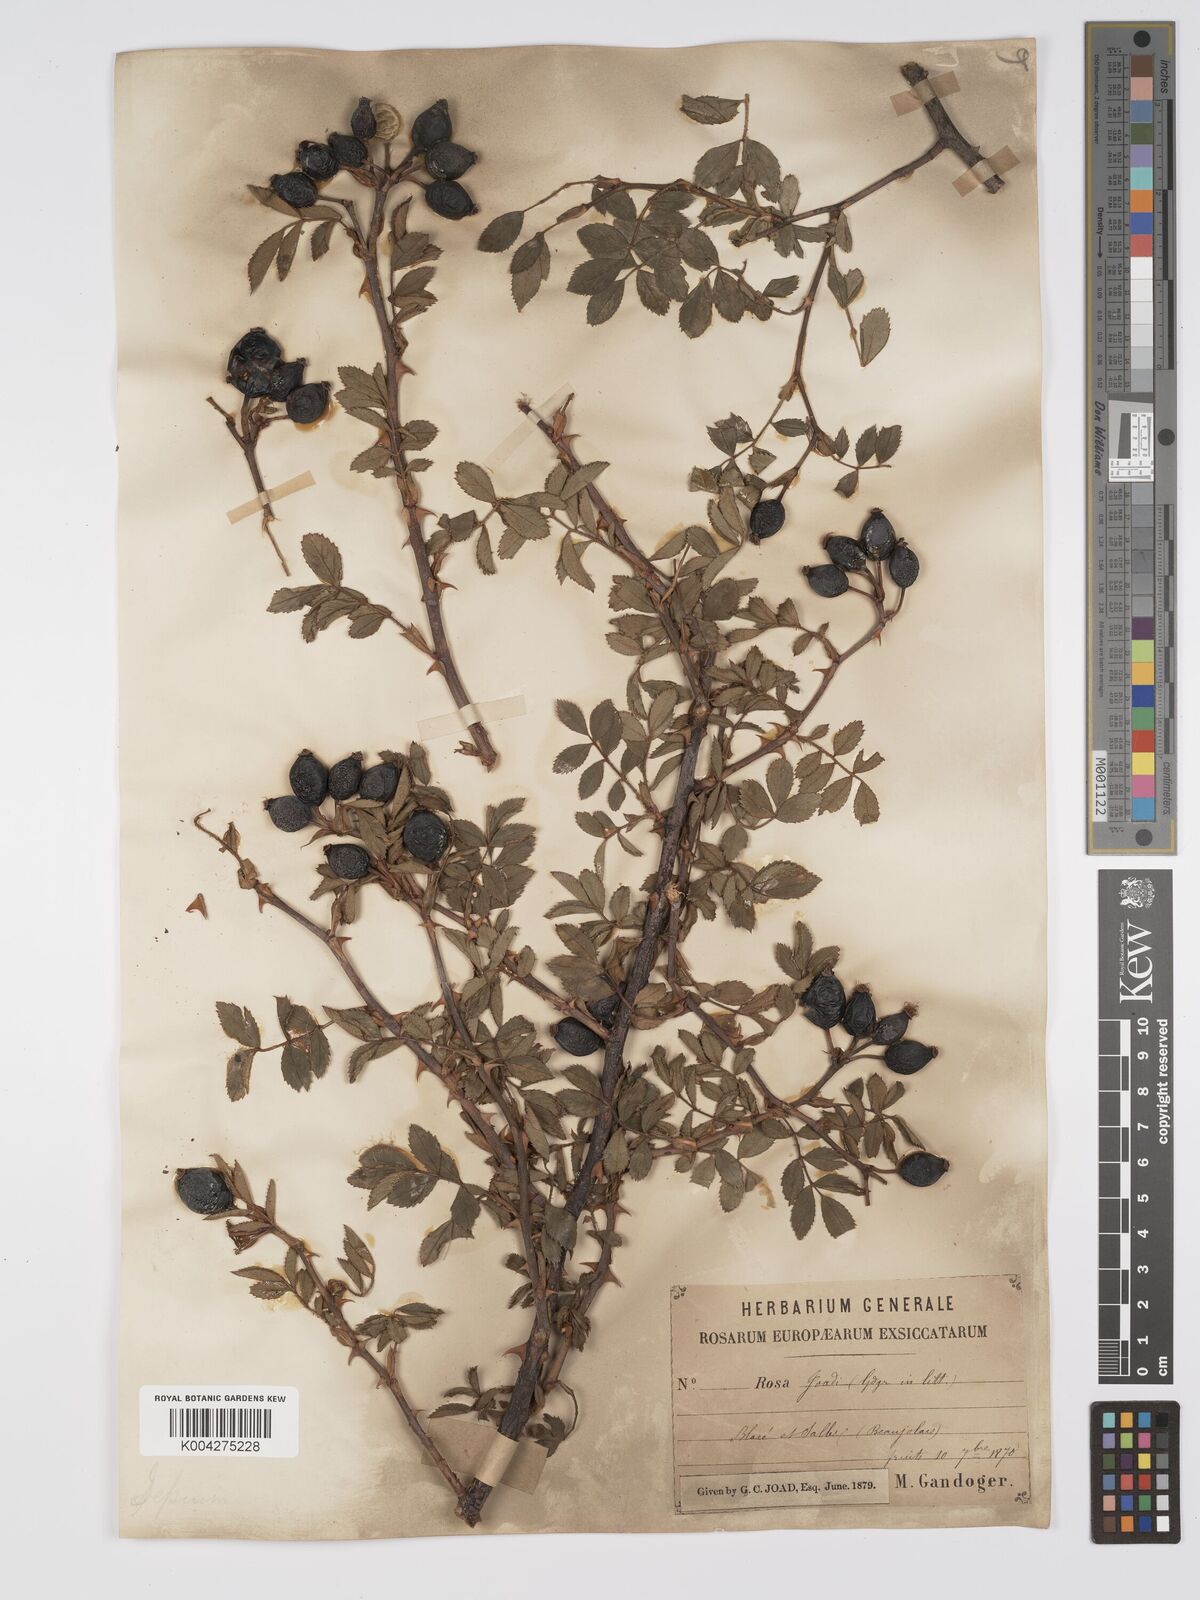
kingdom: Plantae
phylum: Tracheophyta
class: Magnoliopsida
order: Rosales
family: Rosaceae
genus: Rosa
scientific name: Rosa
